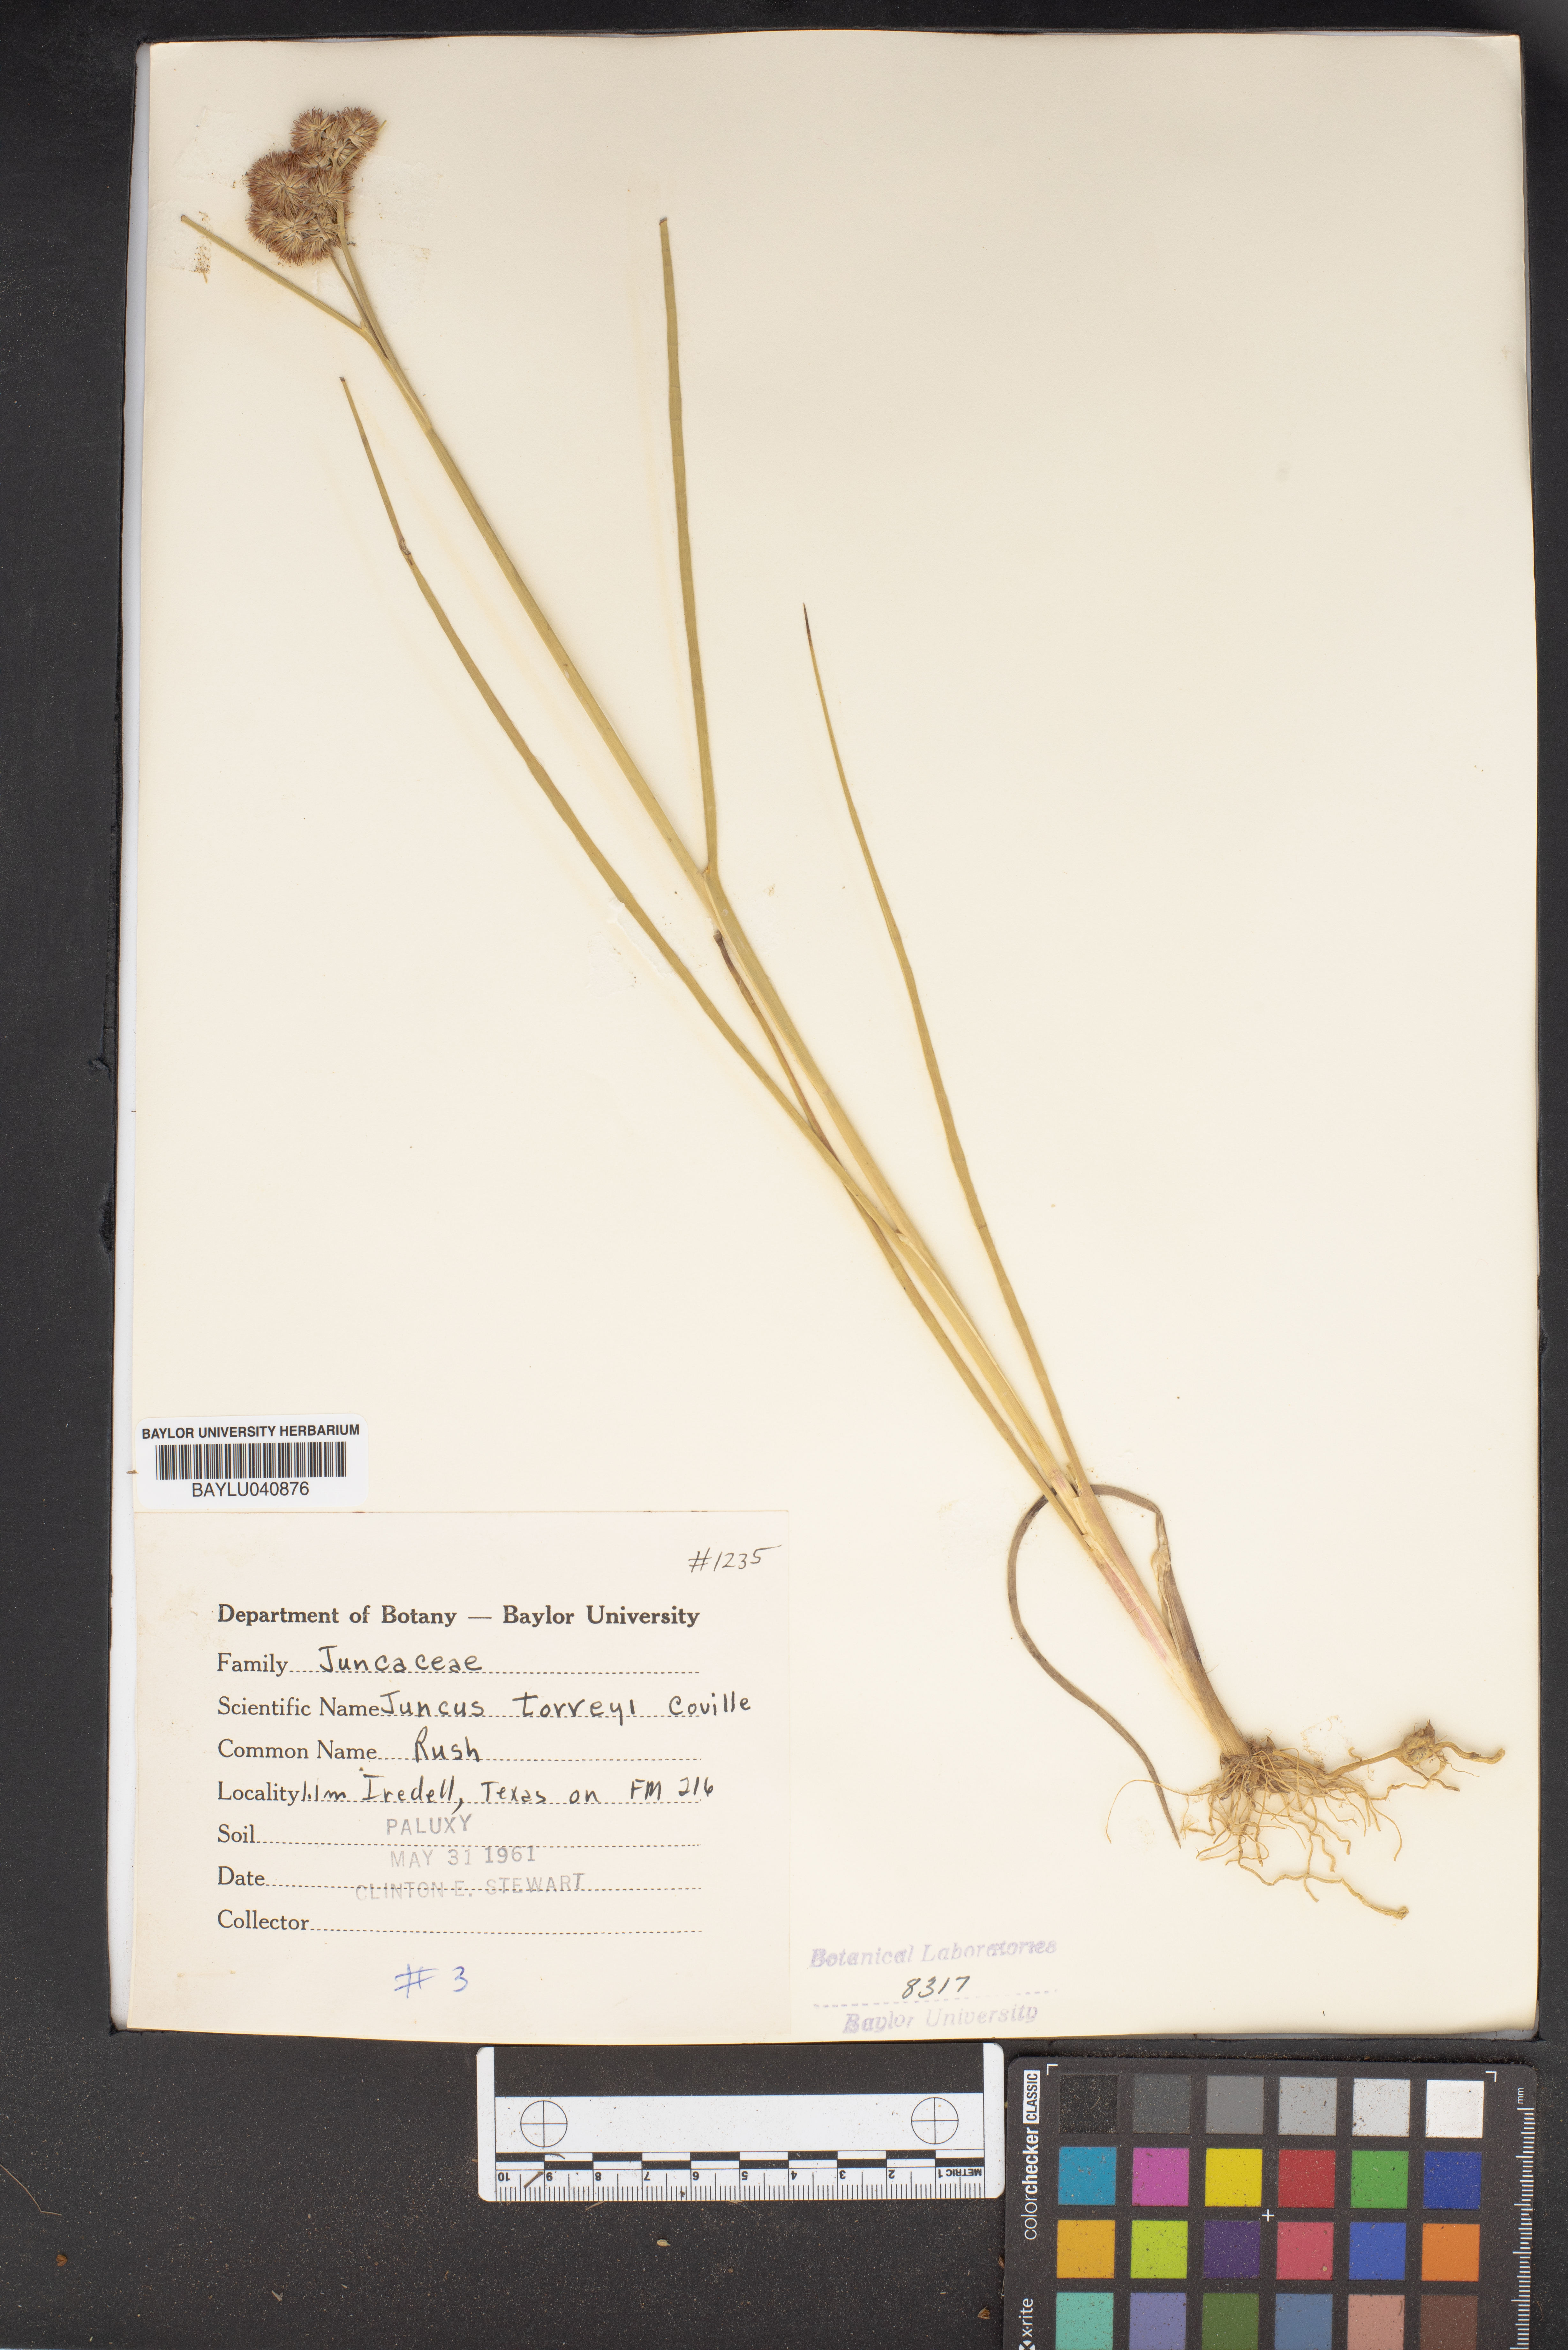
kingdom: Plantae
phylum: Tracheophyta
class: Liliopsida
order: Poales
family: Juncaceae
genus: Juncus
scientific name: Juncus torreyi
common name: Torrey's rush
